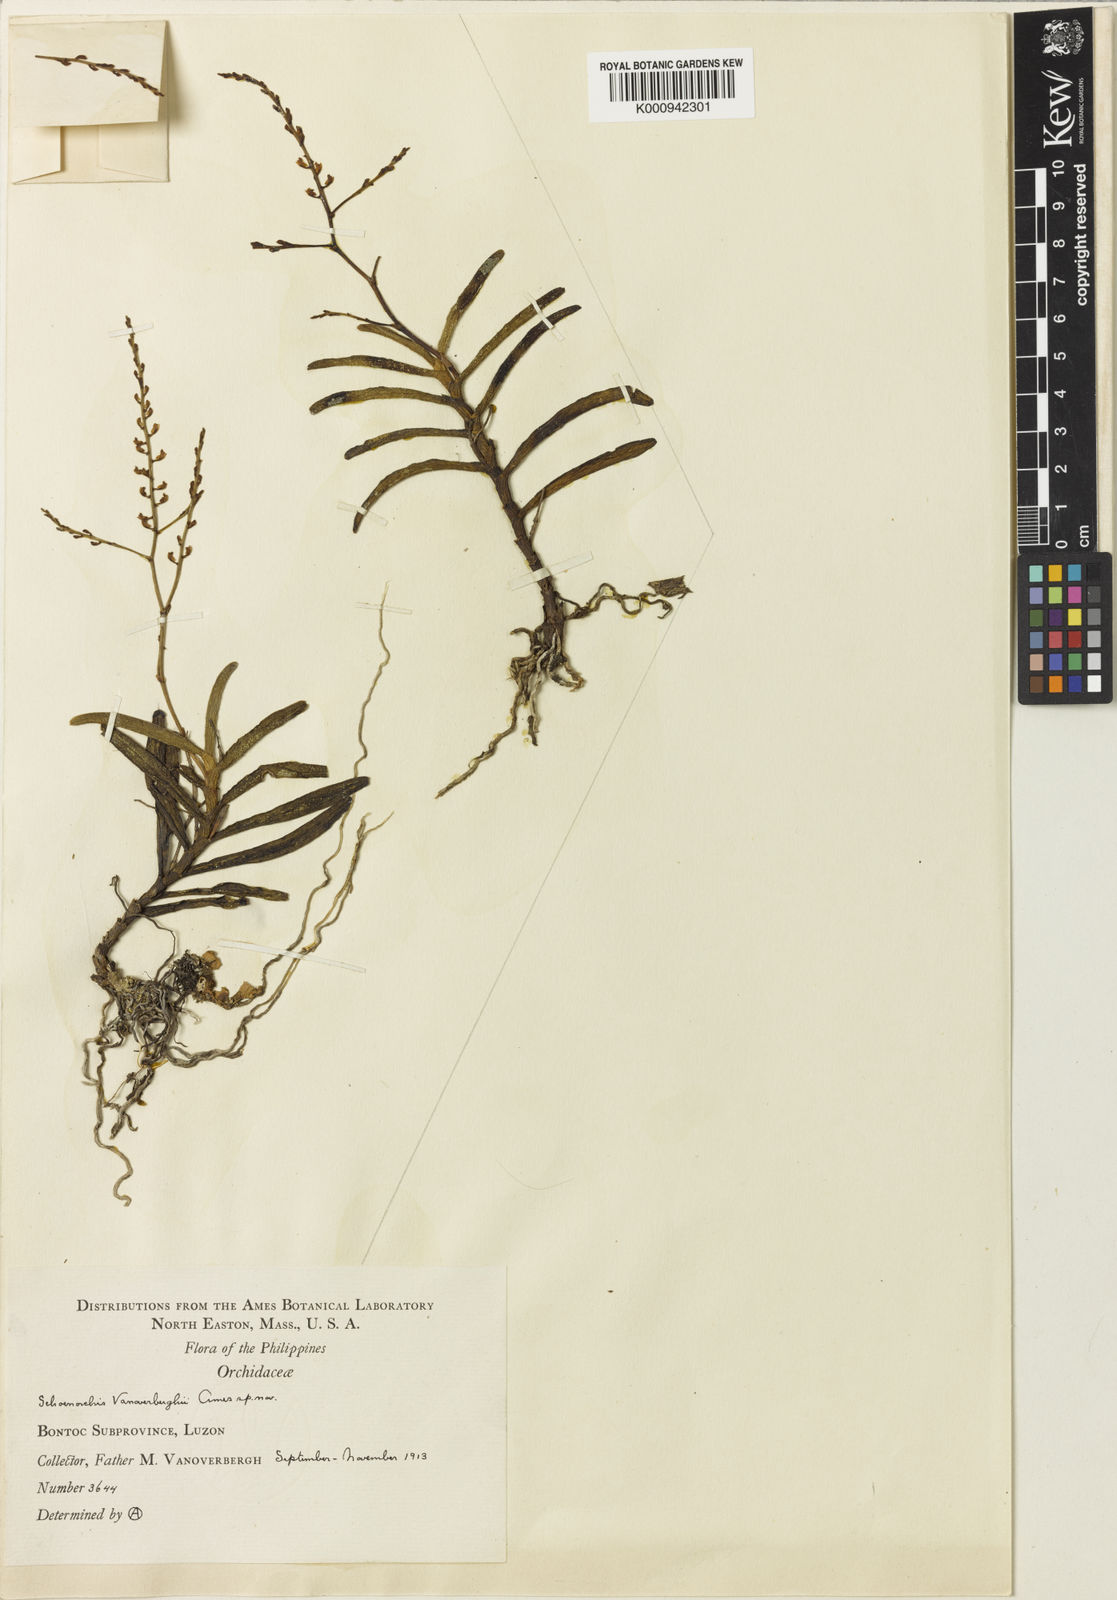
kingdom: Plantae
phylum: Tracheophyta
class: Liliopsida
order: Asparagales
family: Orchidaceae
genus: Schoenorchis
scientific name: Schoenorchis vanoverberghii
